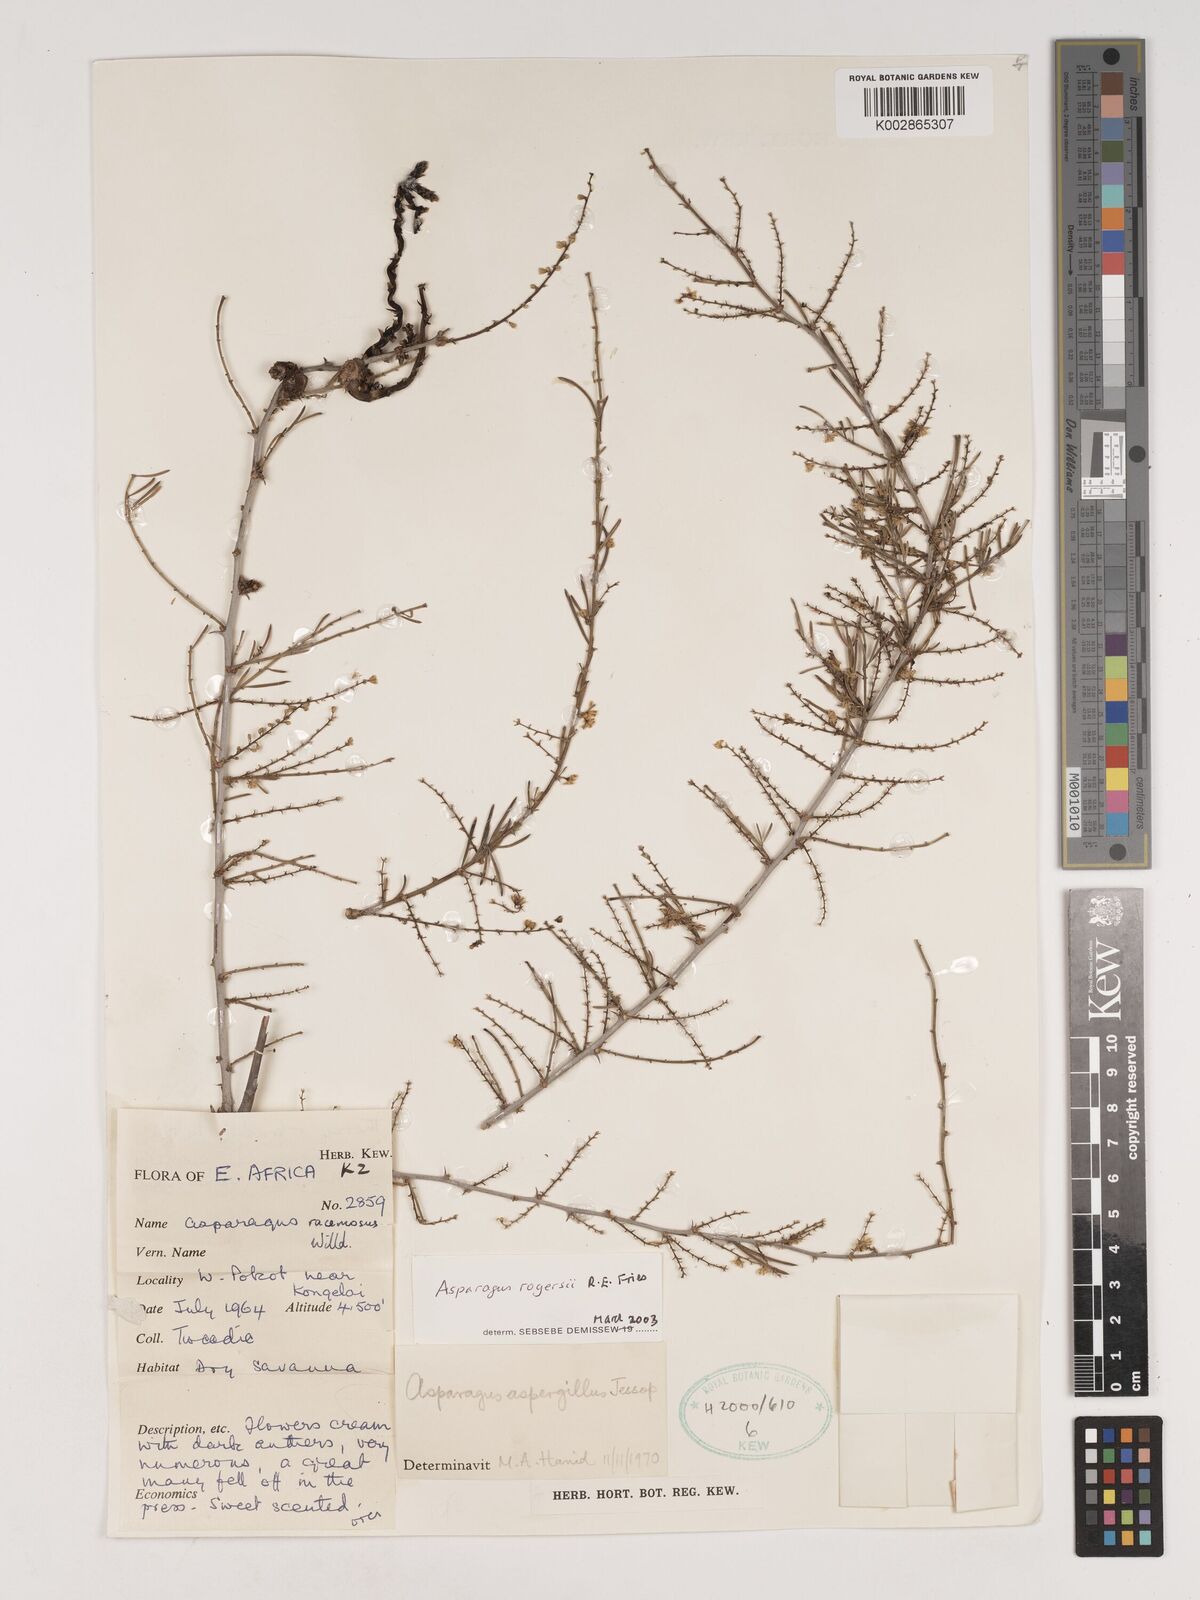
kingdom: Plantae
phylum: Tracheophyta
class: Liliopsida
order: Asparagales
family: Asparagaceae
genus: Asparagus
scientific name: Asparagus rogersii
